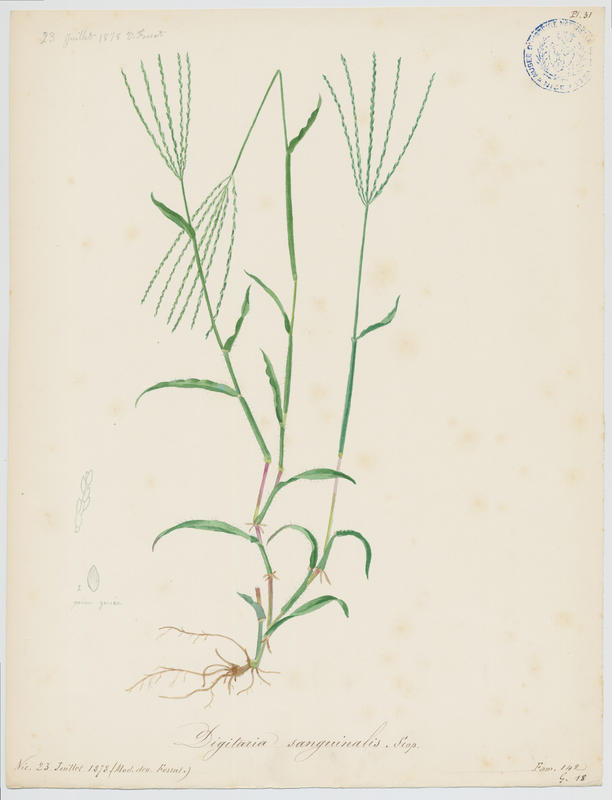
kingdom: Plantae
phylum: Tracheophyta
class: Liliopsida
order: Poales
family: Poaceae
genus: Digitaria
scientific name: Digitaria sanguinalis
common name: Hairy crabgrass
